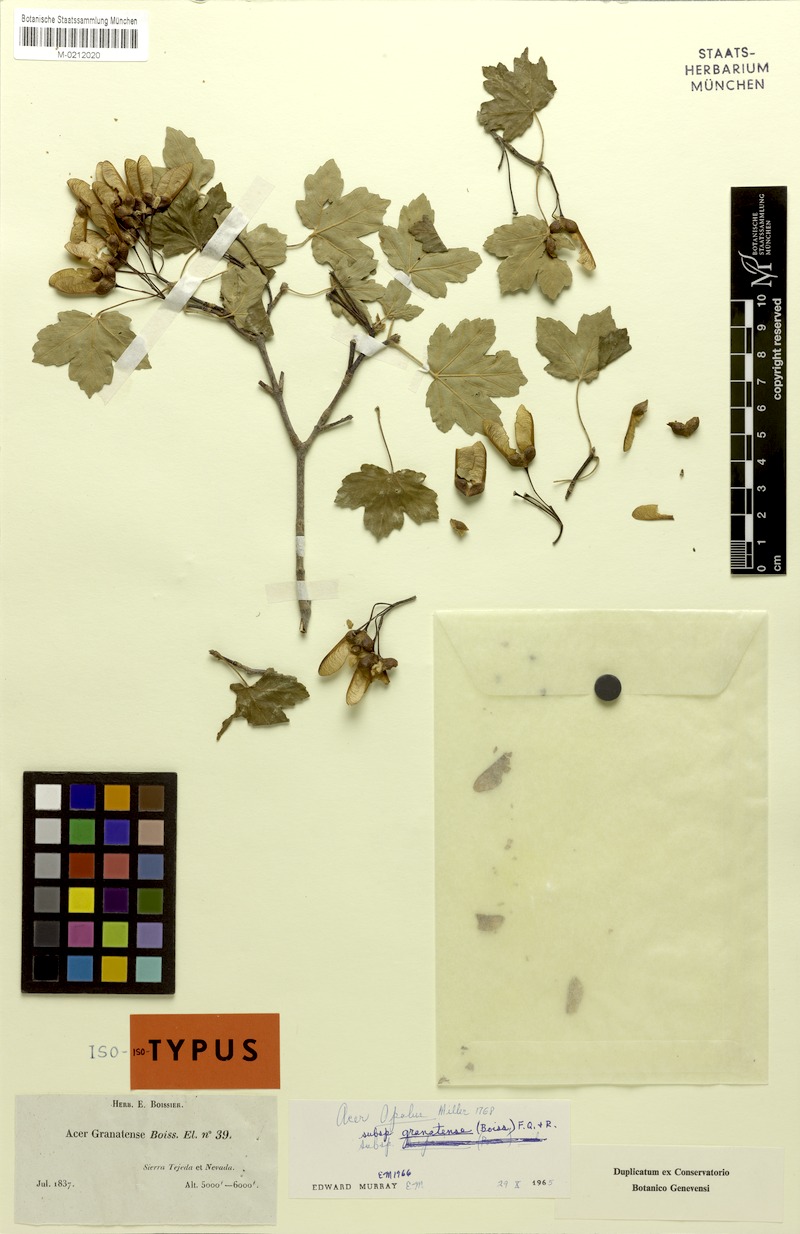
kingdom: Plantae
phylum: Tracheophyta
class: Magnoliopsida
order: Sapindales
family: Sapindaceae
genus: Acer
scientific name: Acer granatense
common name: Spanish maple
